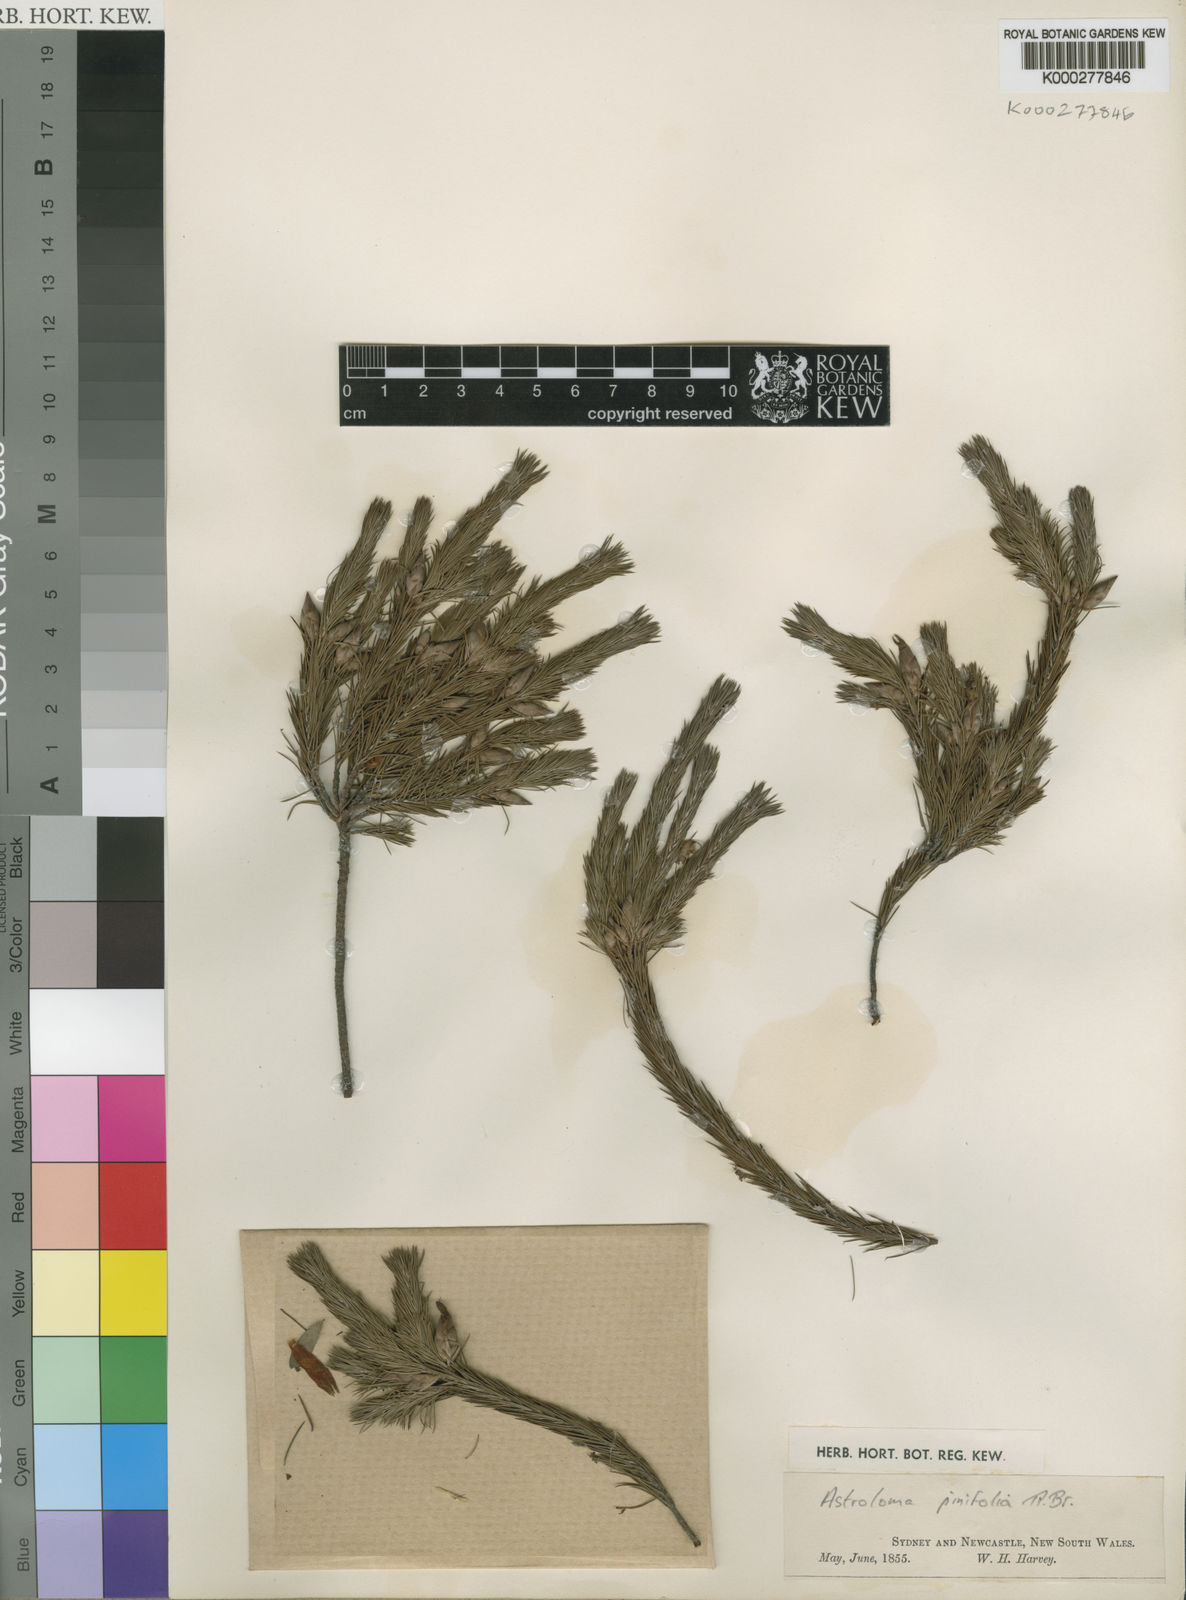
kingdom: Plantae
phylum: Tracheophyta
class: Magnoliopsida
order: Ericales
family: Ericaceae
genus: Stenanthera
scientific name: Stenanthera pinifolia
